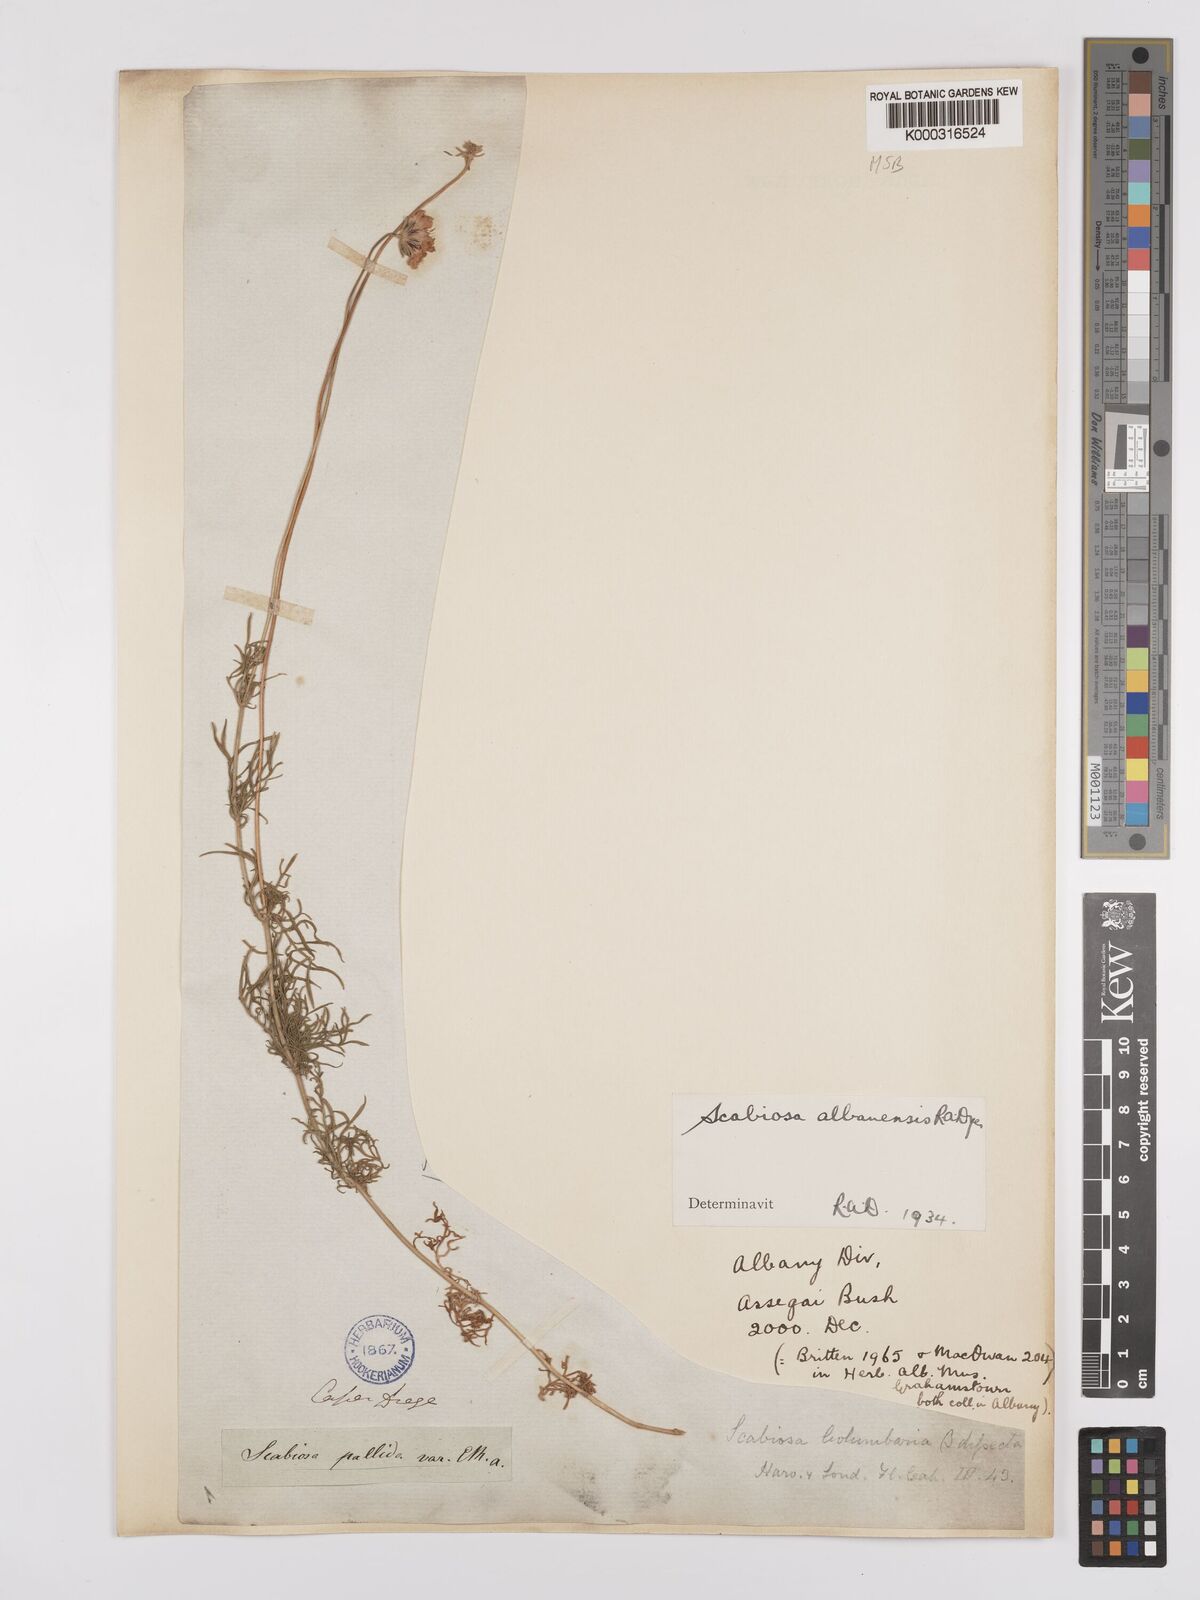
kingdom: Plantae
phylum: Tracheophyta
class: Magnoliopsida
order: Dipsacales
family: Caprifoliaceae
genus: Scabiosa
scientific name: Scabiosa albanensis
